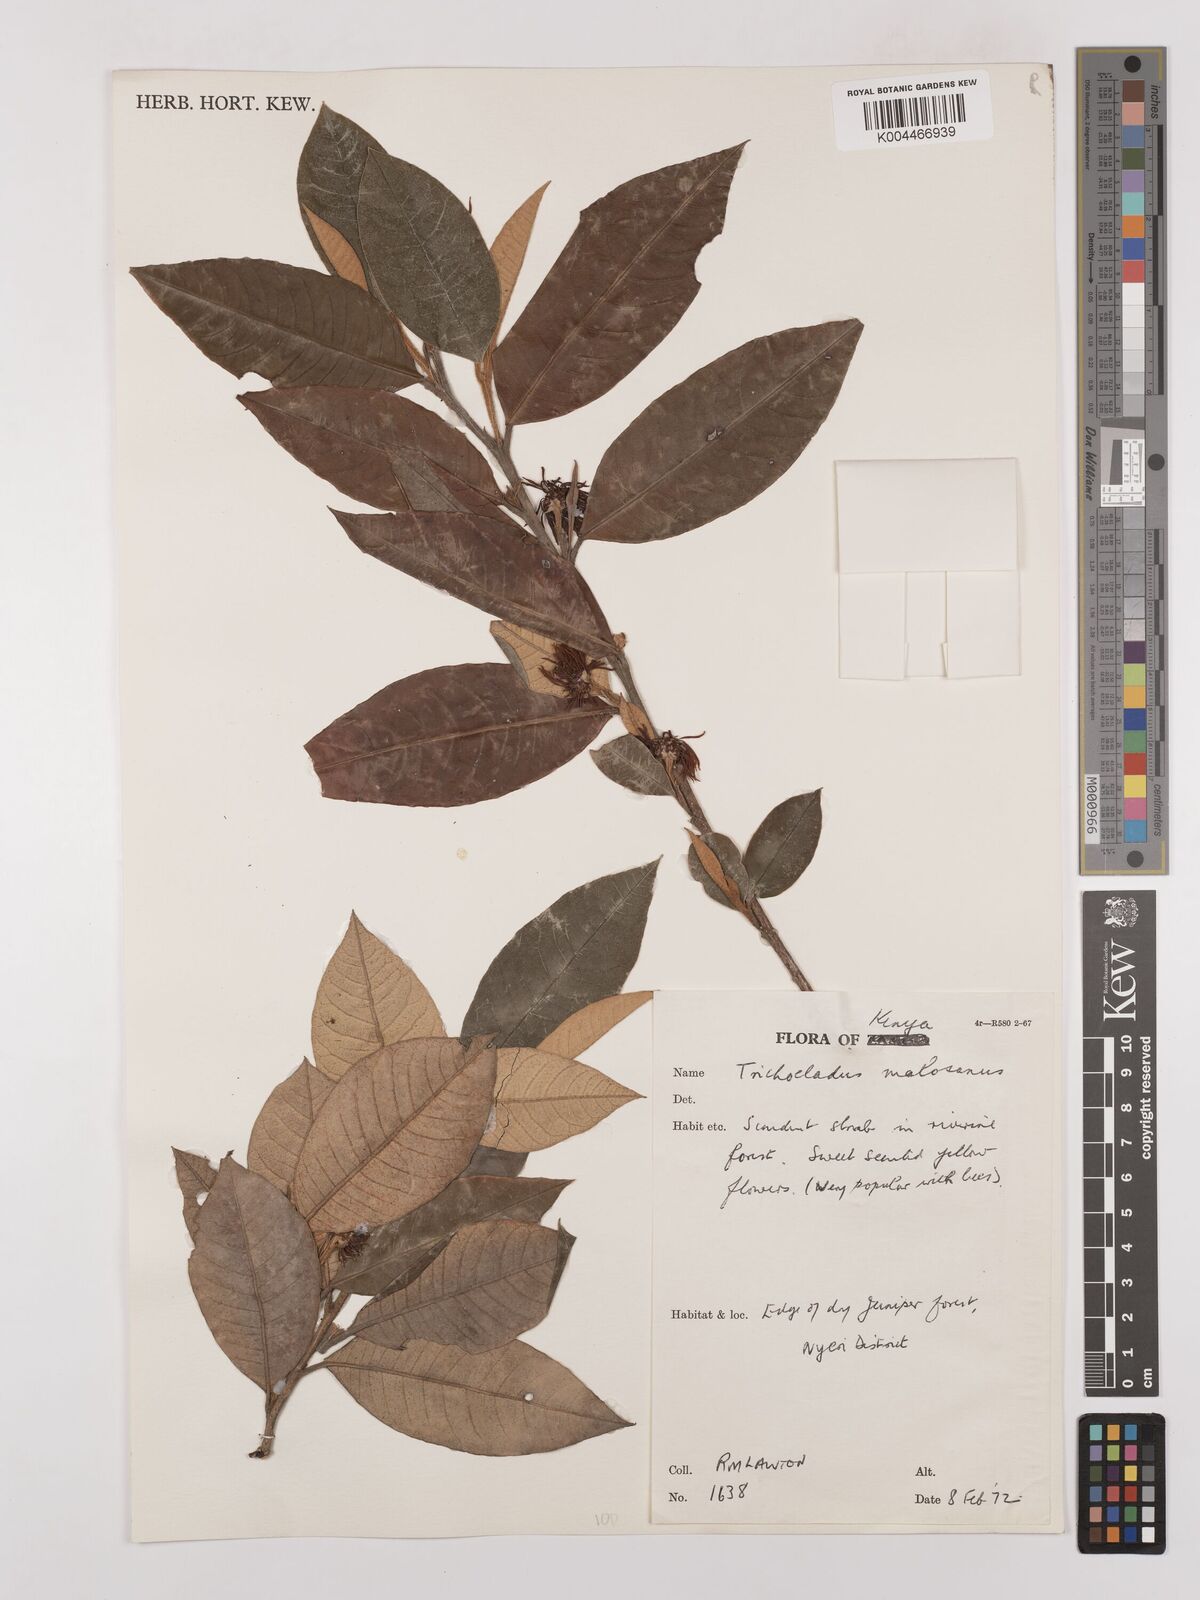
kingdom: Plantae
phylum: Tracheophyta
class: Magnoliopsida
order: Saxifragales
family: Hamamelidaceae
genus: Trichocladus
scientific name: Trichocladus ellipticus
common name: White witch-hazel
